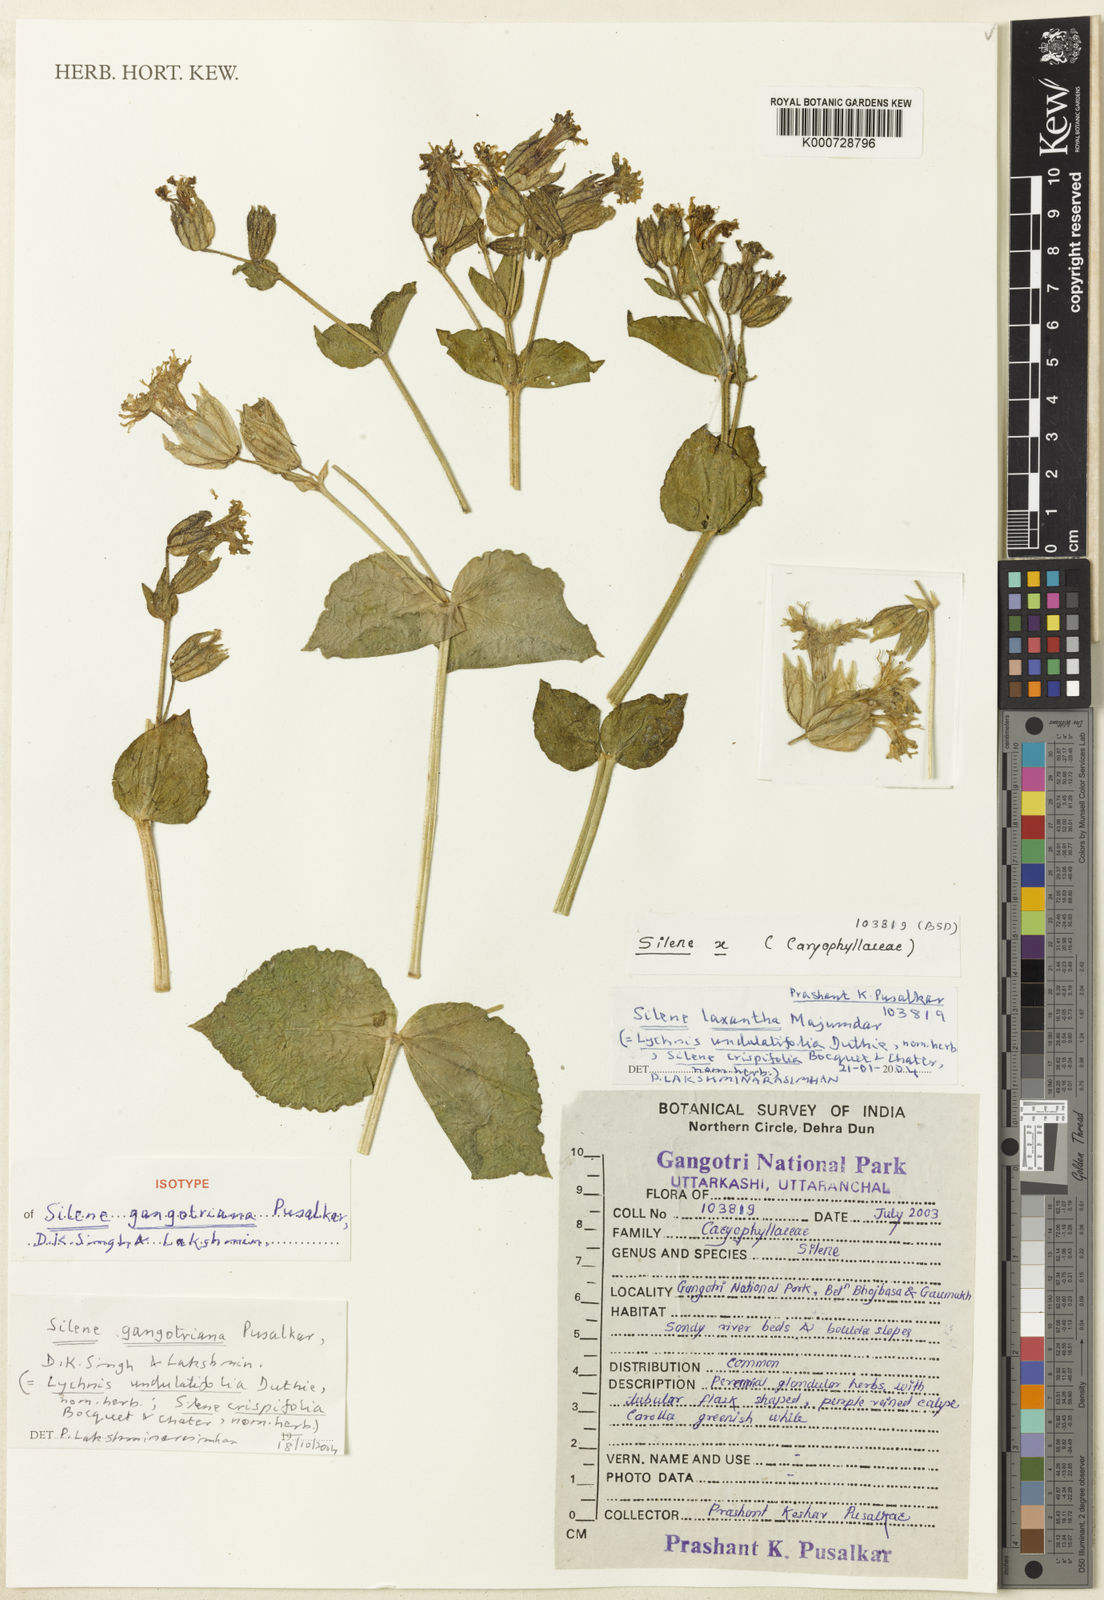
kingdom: Plantae
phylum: Tracheophyta
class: Magnoliopsida
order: Caryophyllales
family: Caryophyllaceae
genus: Silene
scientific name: Silene gangotriana
